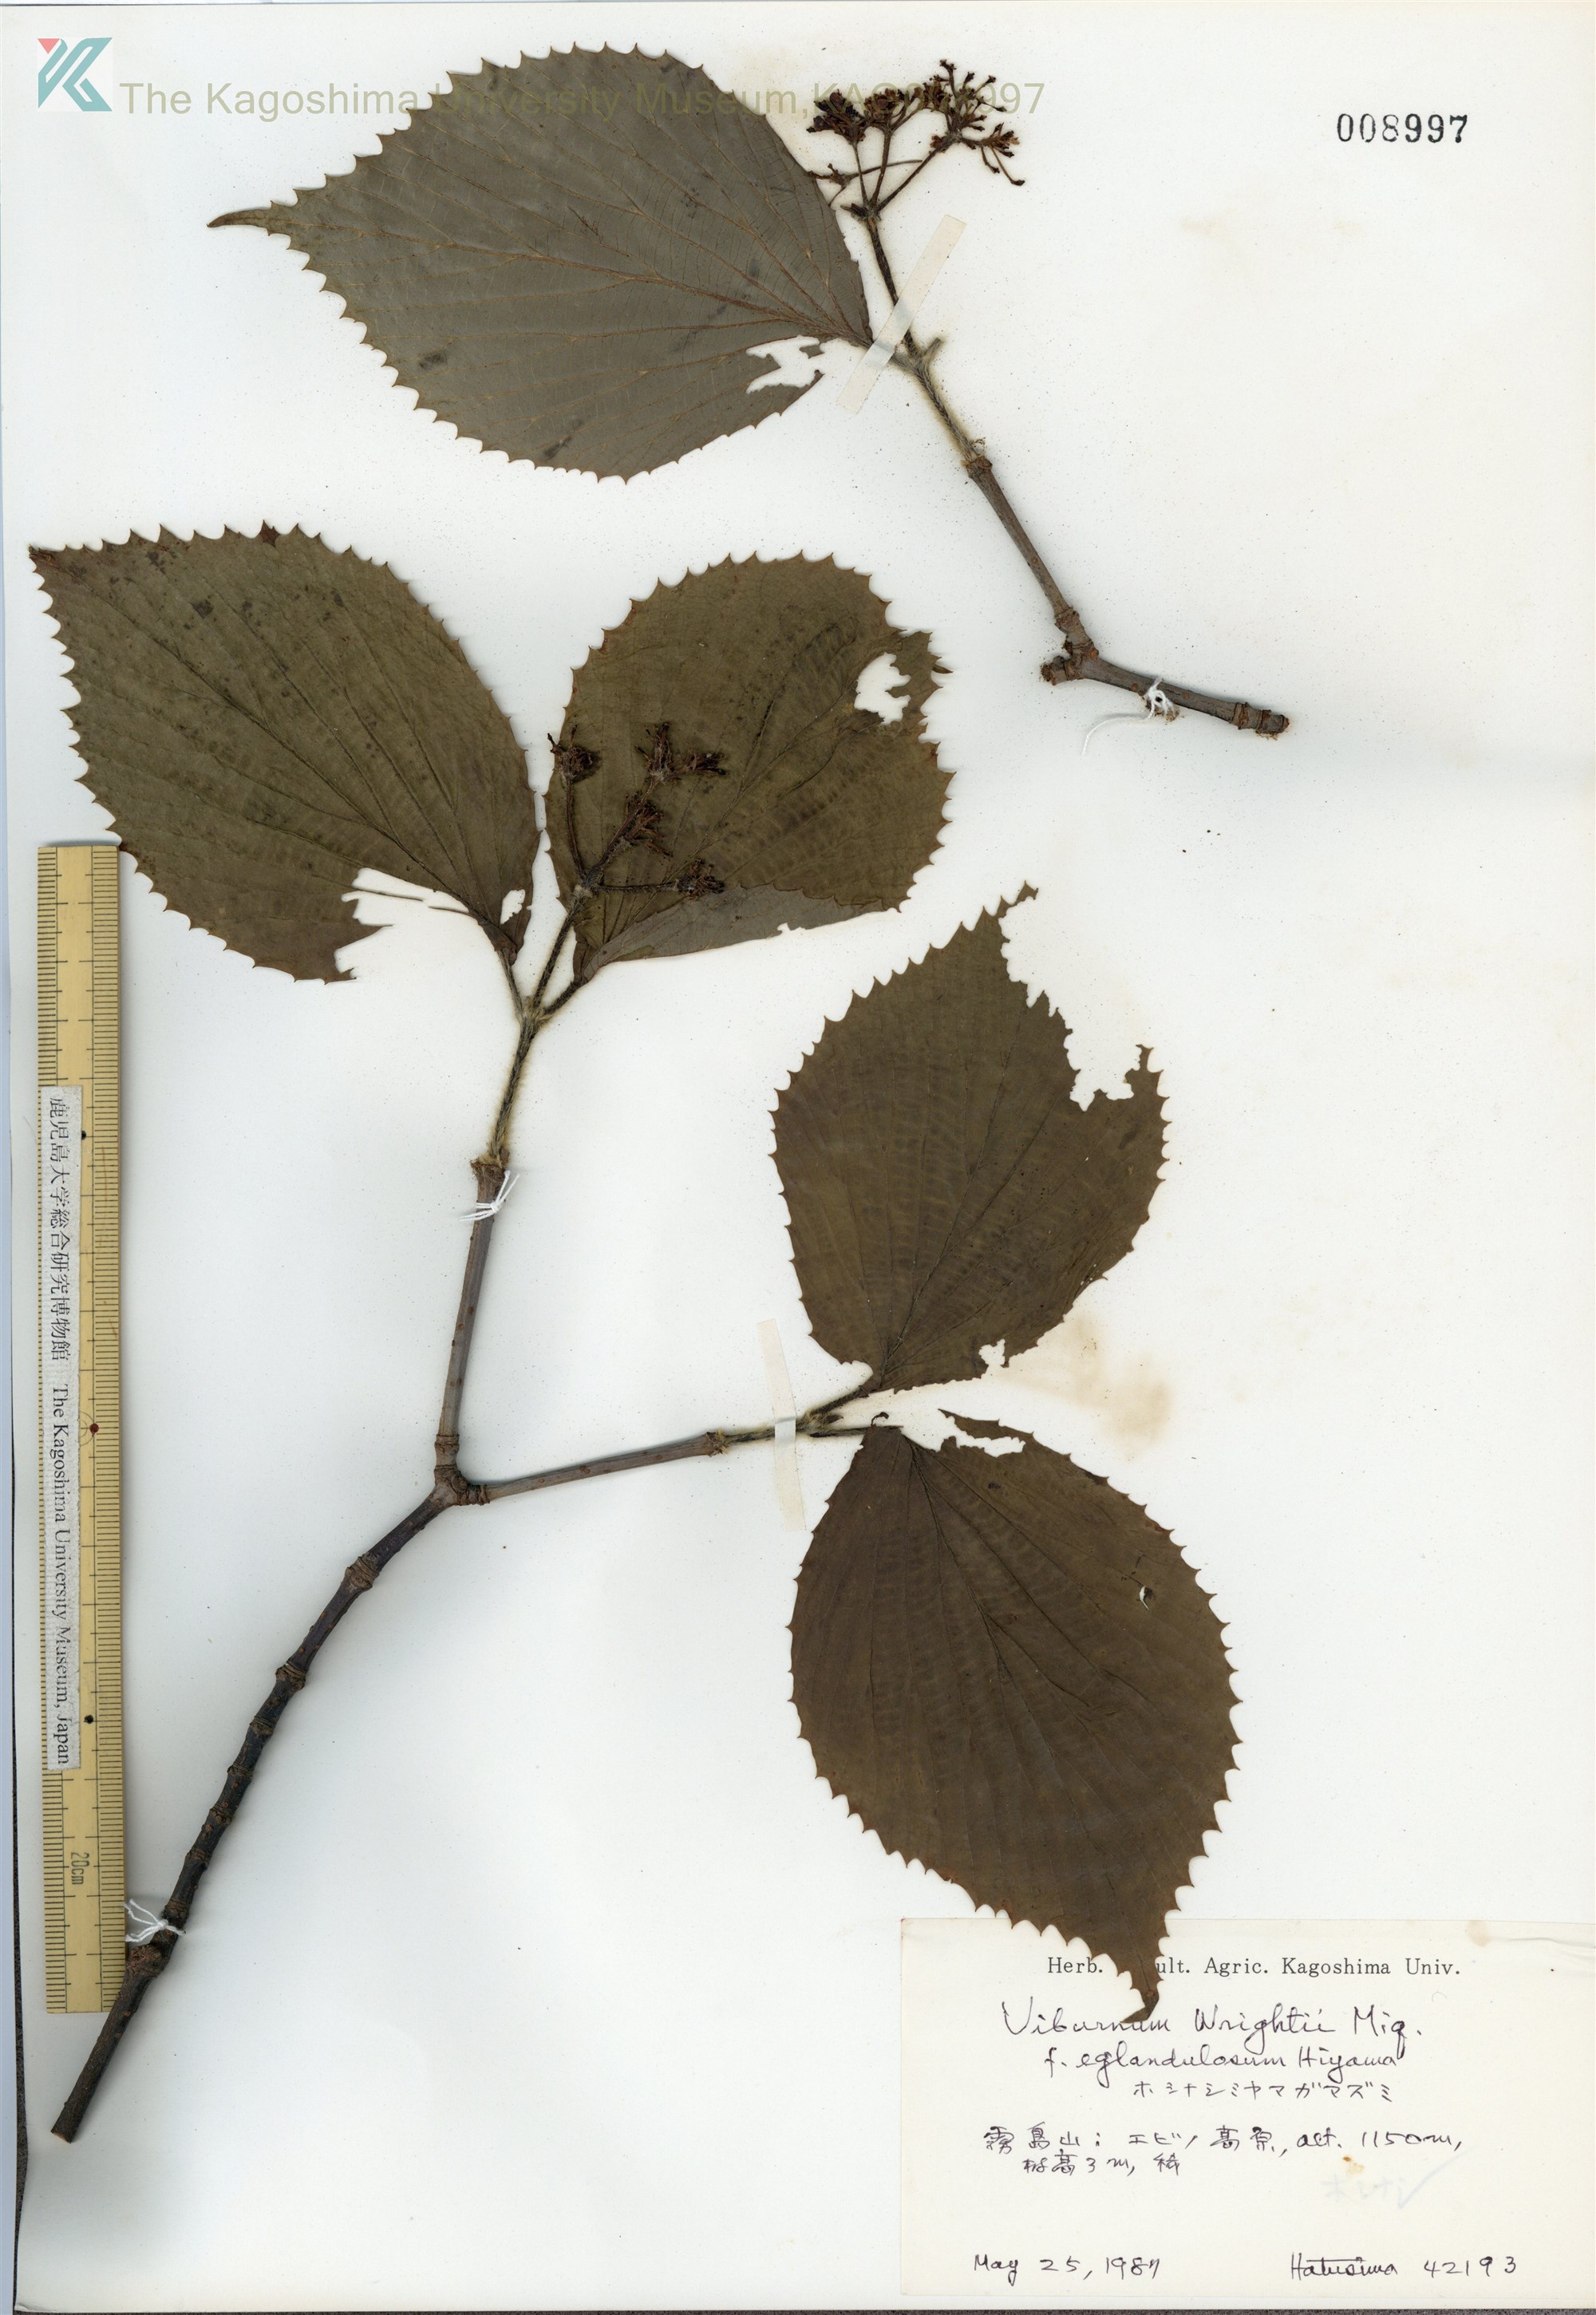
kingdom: Plantae
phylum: Tracheophyta
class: Magnoliopsida
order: Dipsacales
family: Viburnaceae
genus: Viburnum
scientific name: Viburnum wrightii
